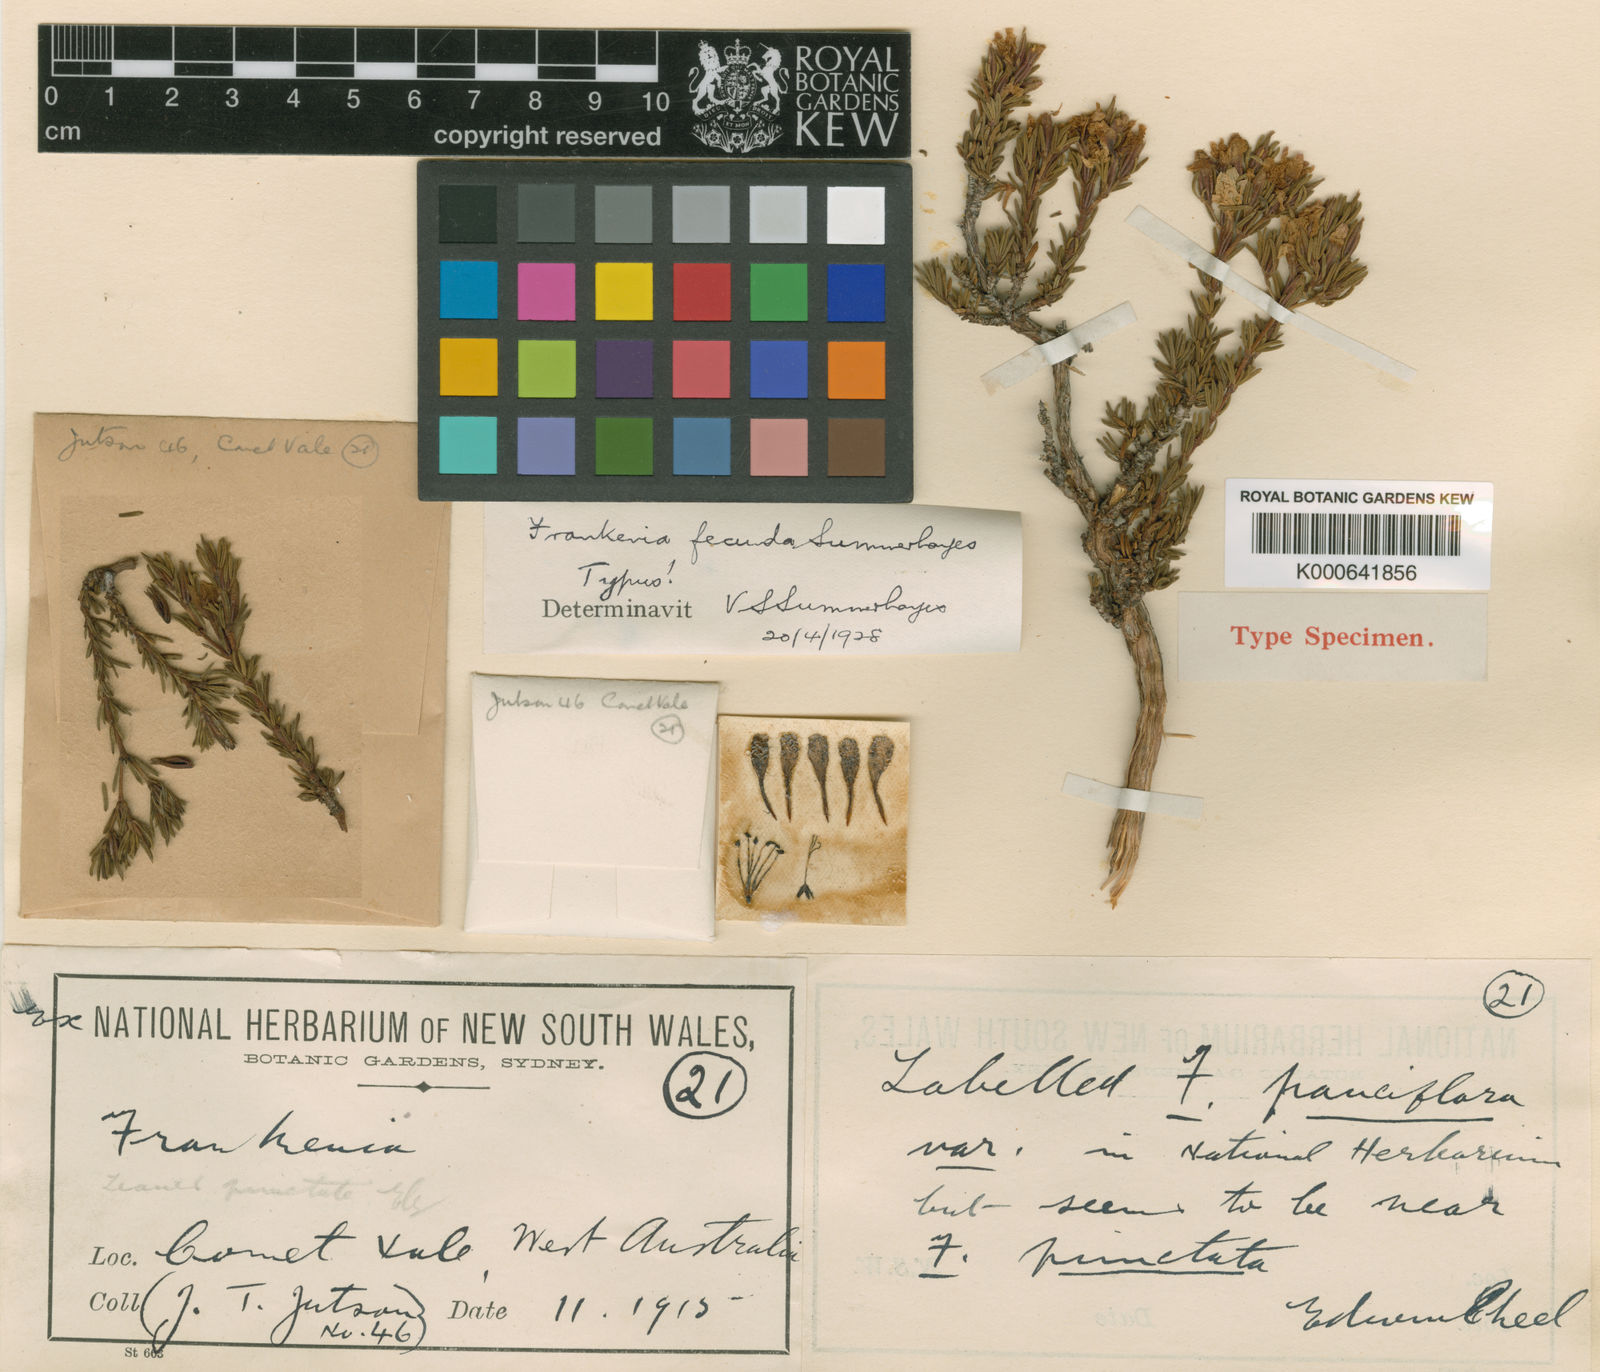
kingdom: Plantae
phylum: Tracheophyta
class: Magnoliopsida
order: Caryophyllales
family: Frankeniaceae
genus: Frankenia
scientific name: Frankenia fecunda
